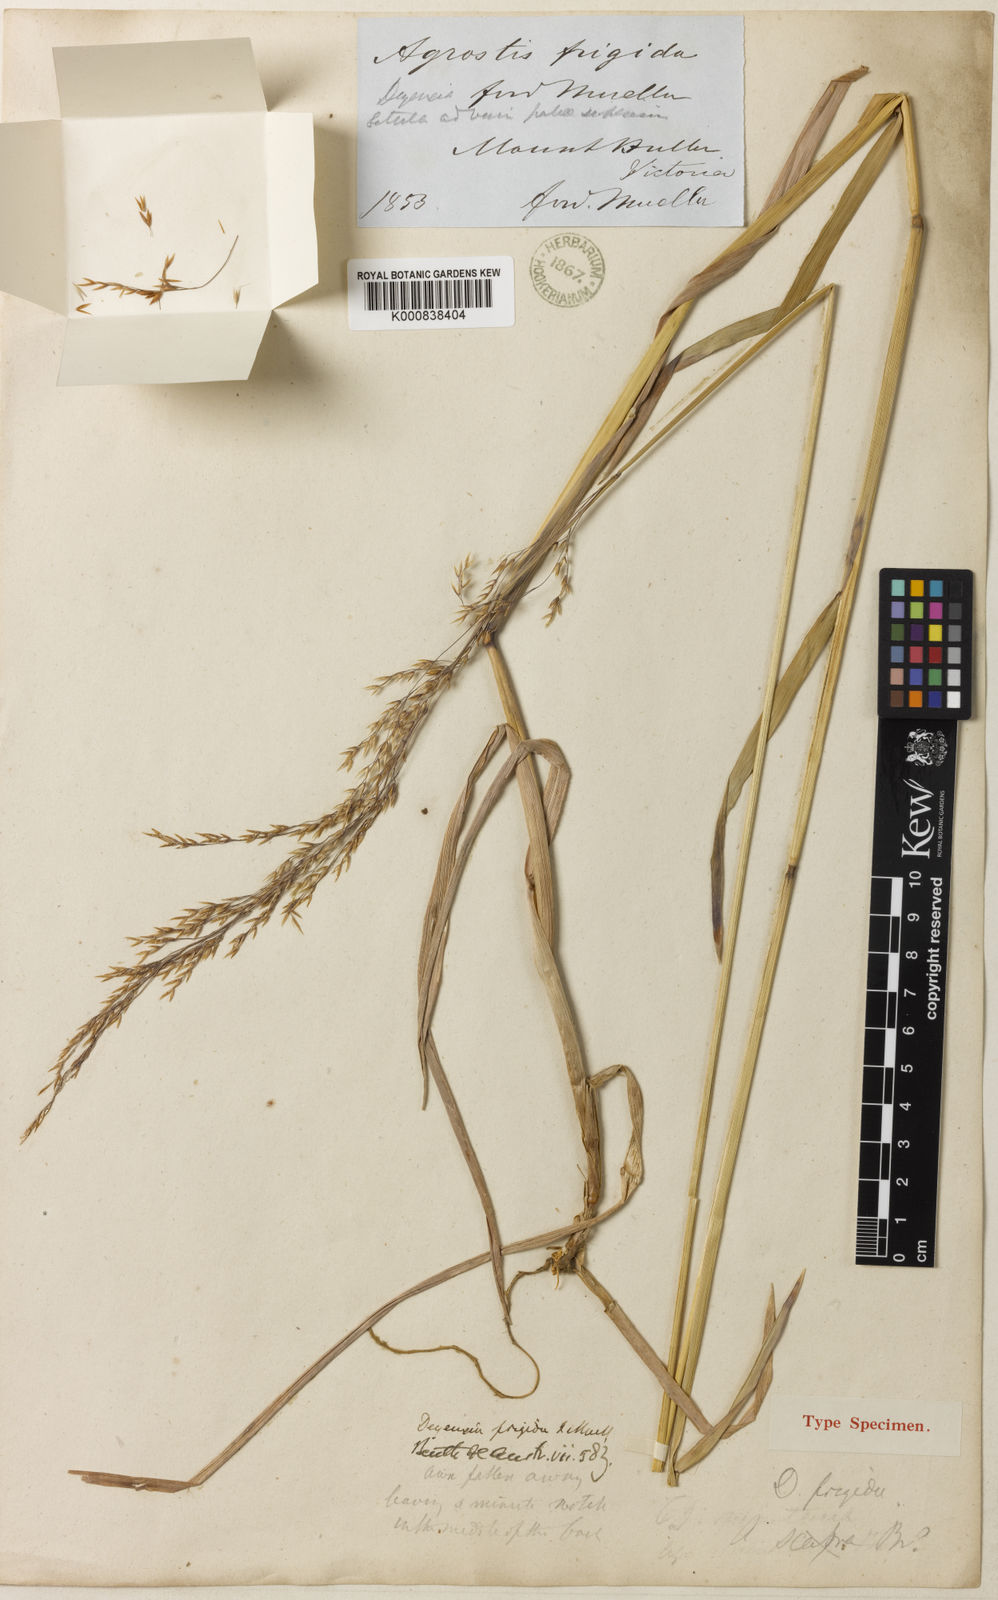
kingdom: Plantae
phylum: Tracheophyta
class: Liliopsida
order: Poales
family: Poaceae
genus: Calamagrostis
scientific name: Calamagrostis frigida
